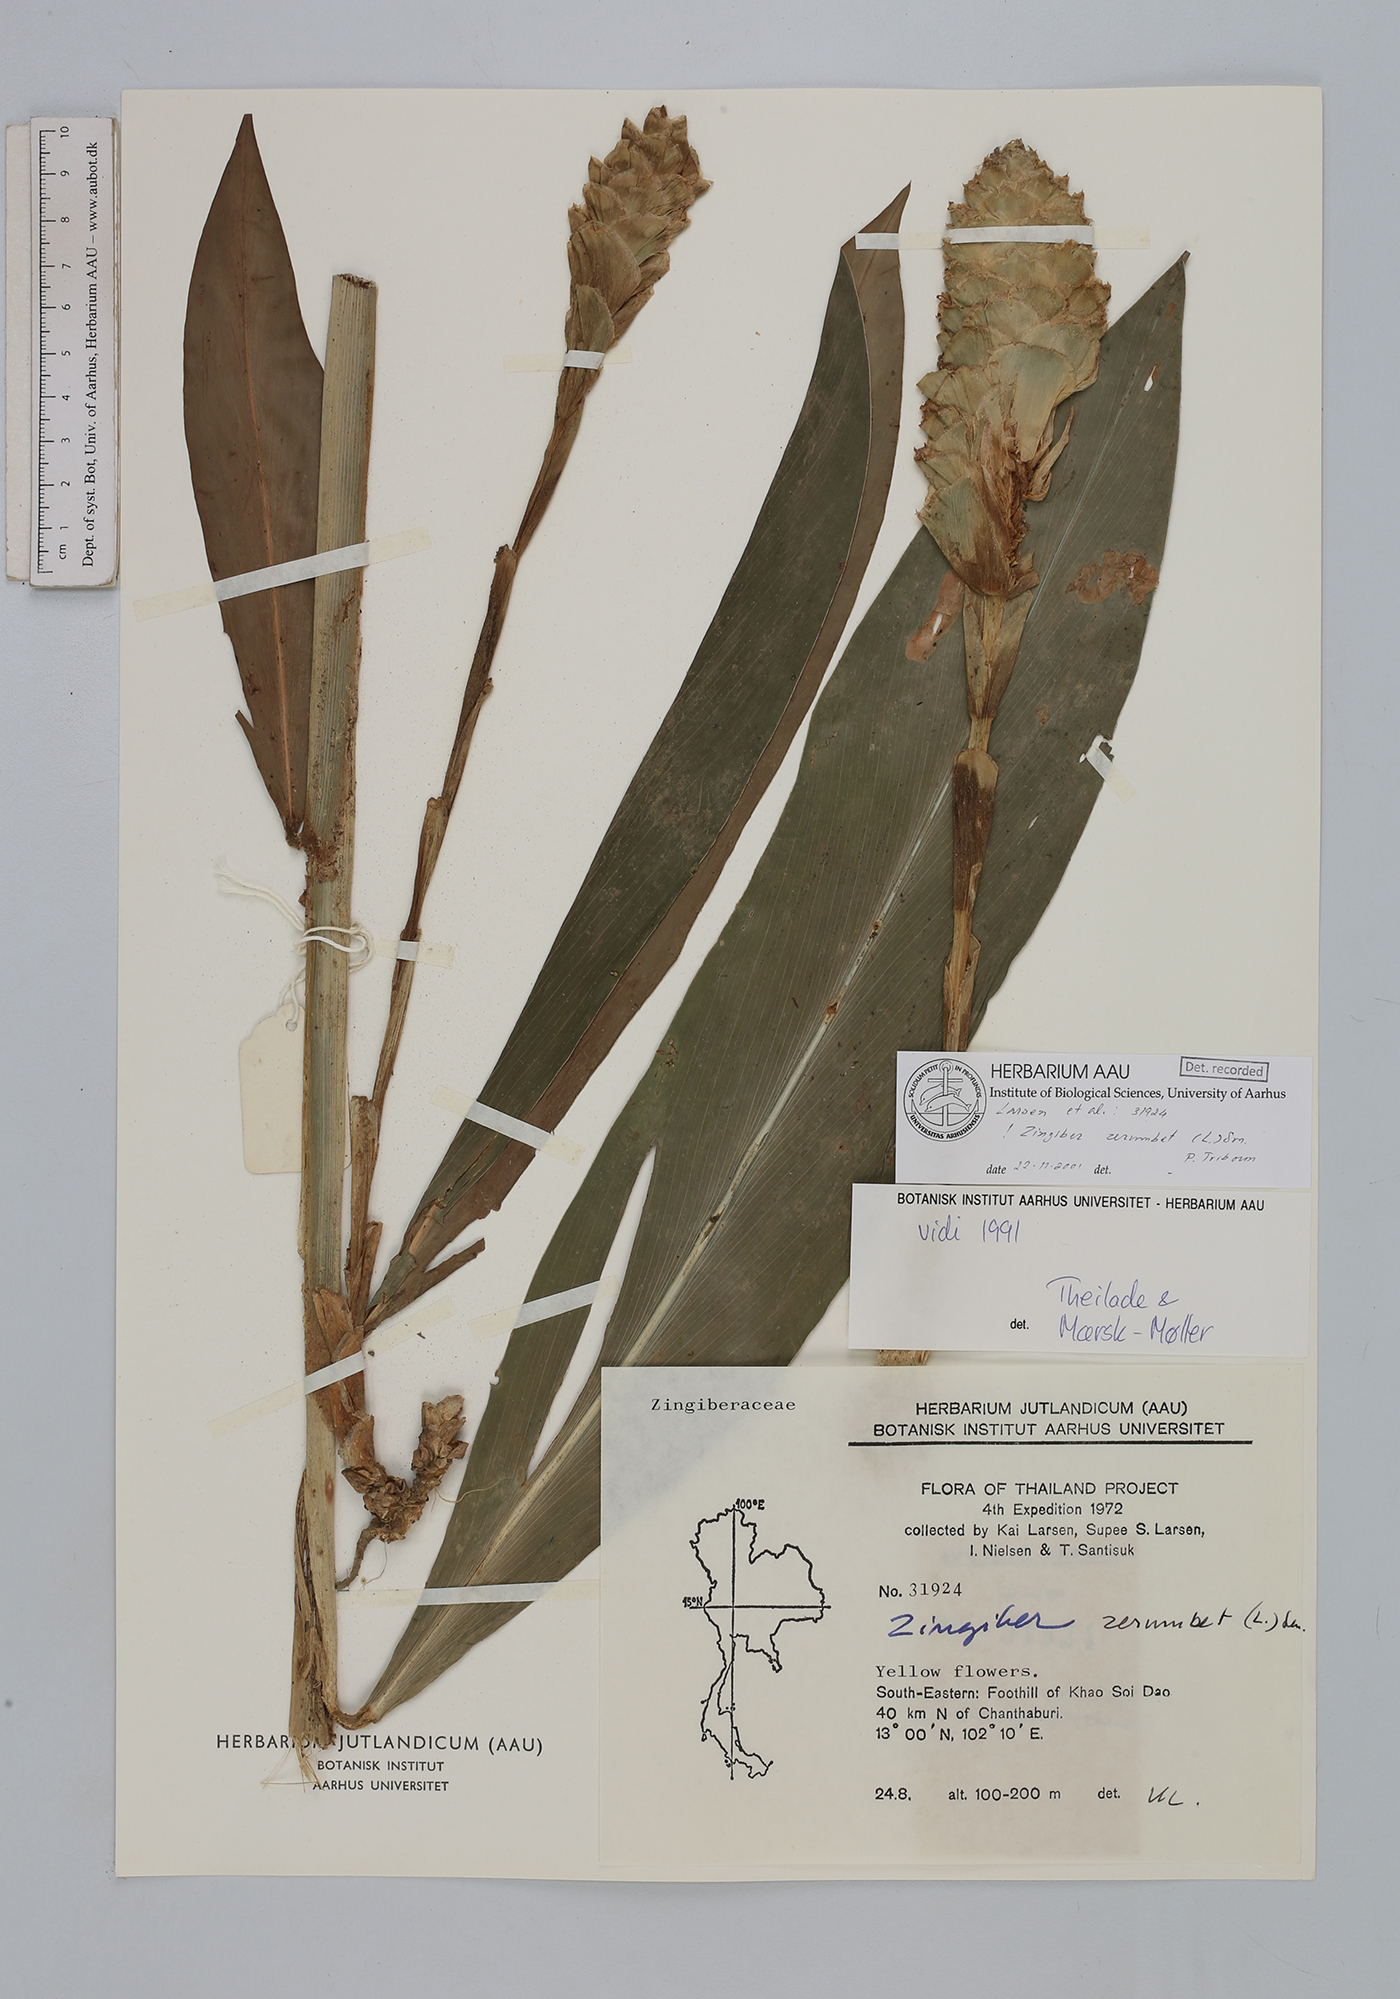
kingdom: Plantae
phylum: Tracheophyta
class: Liliopsida
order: Zingiberales
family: Zingiberaceae
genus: Zingiber
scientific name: Zingiber zerumbet
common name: Bitter ginger
